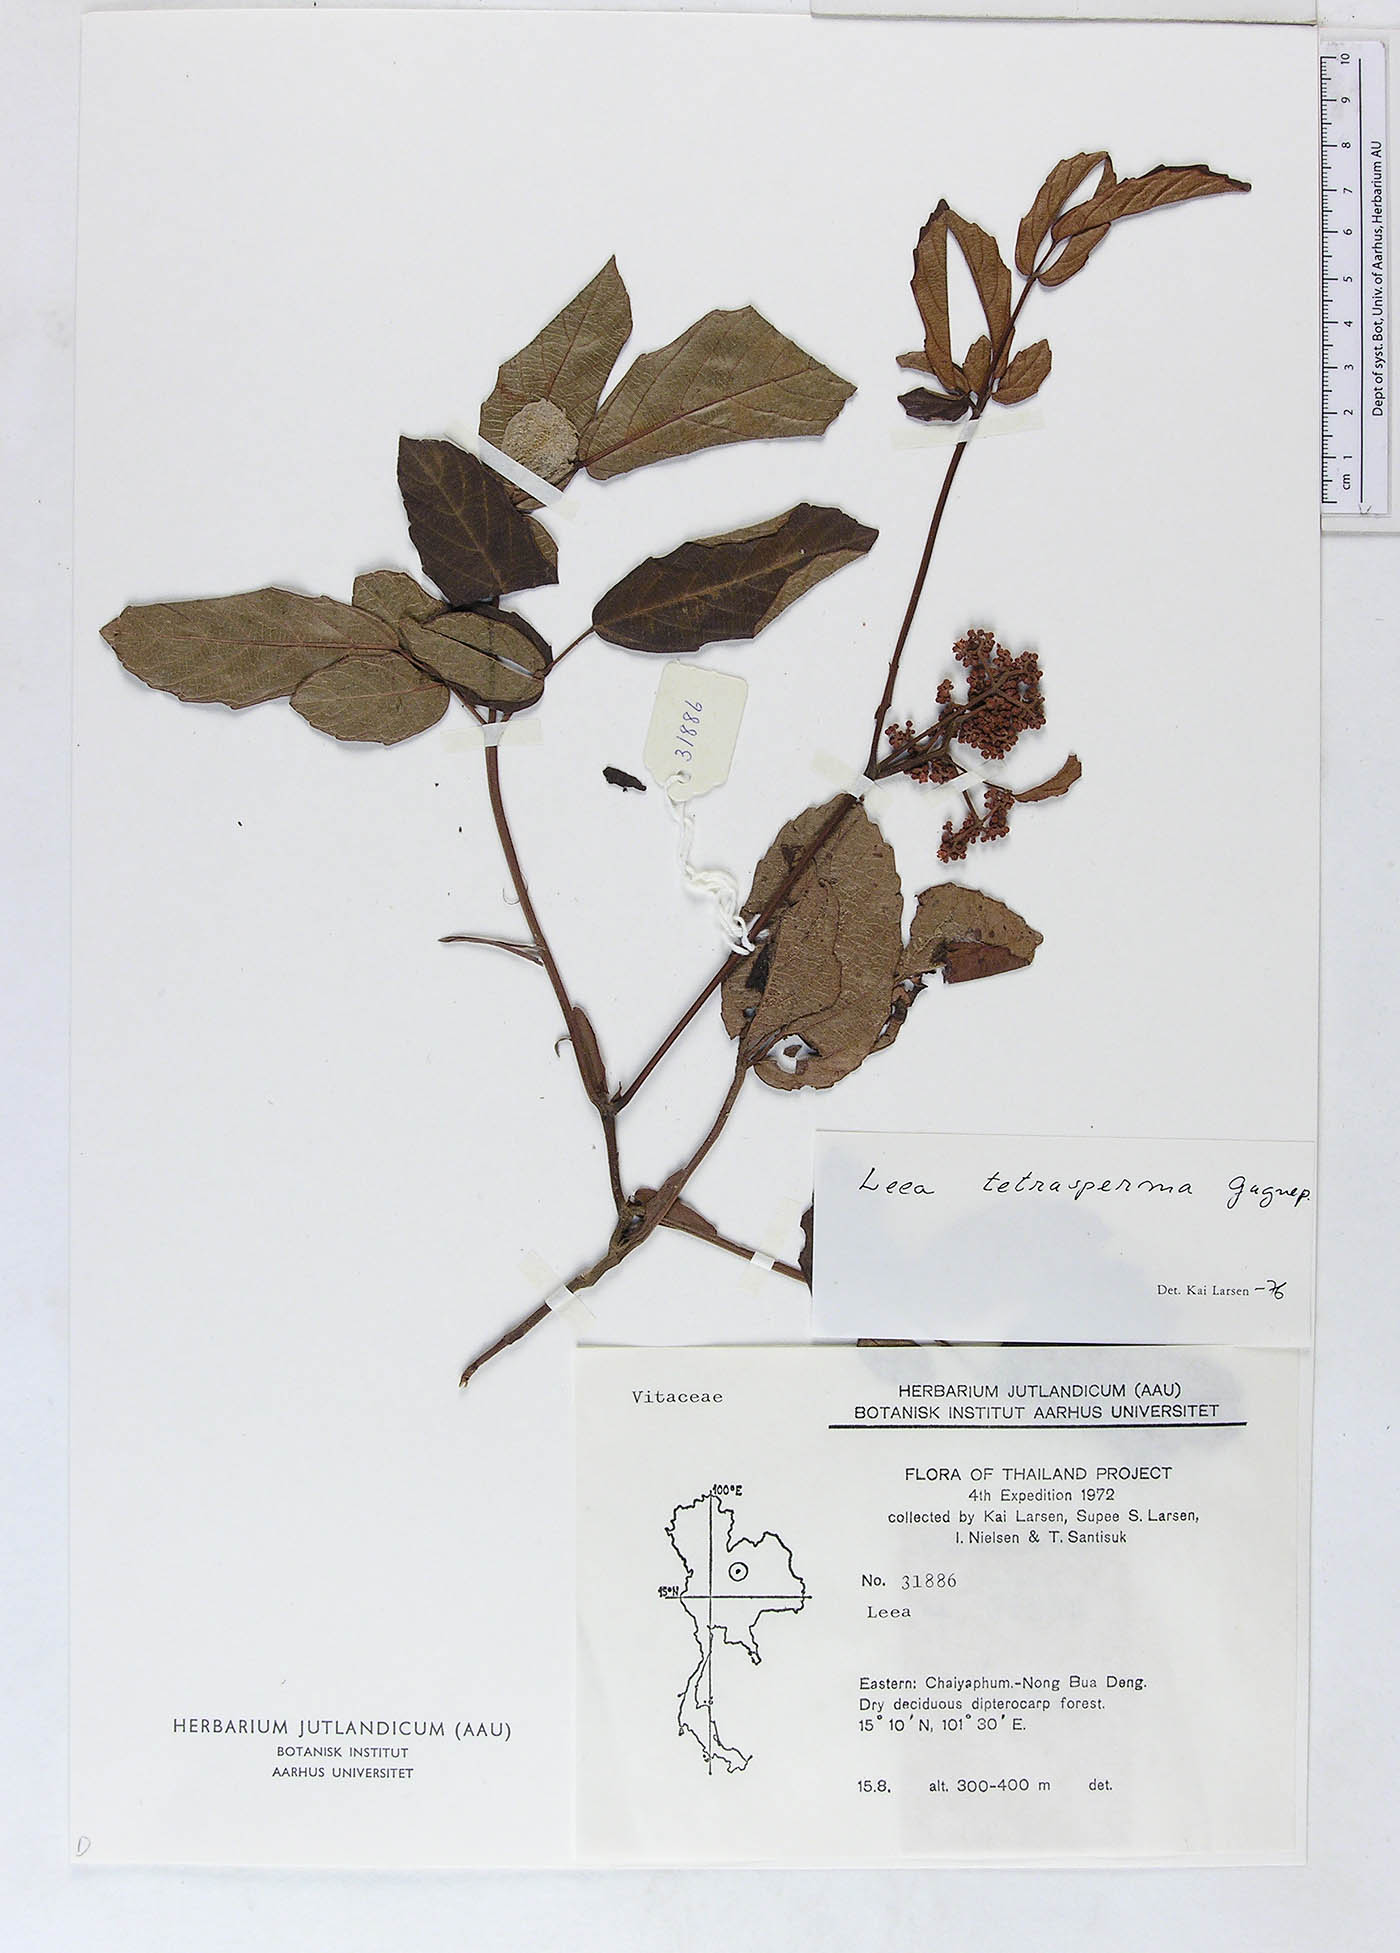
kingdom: Plantae
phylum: Tracheophyta
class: Magnoliopsida
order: Vitales
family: Vitaceae
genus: Leea
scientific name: Leea thorelii
